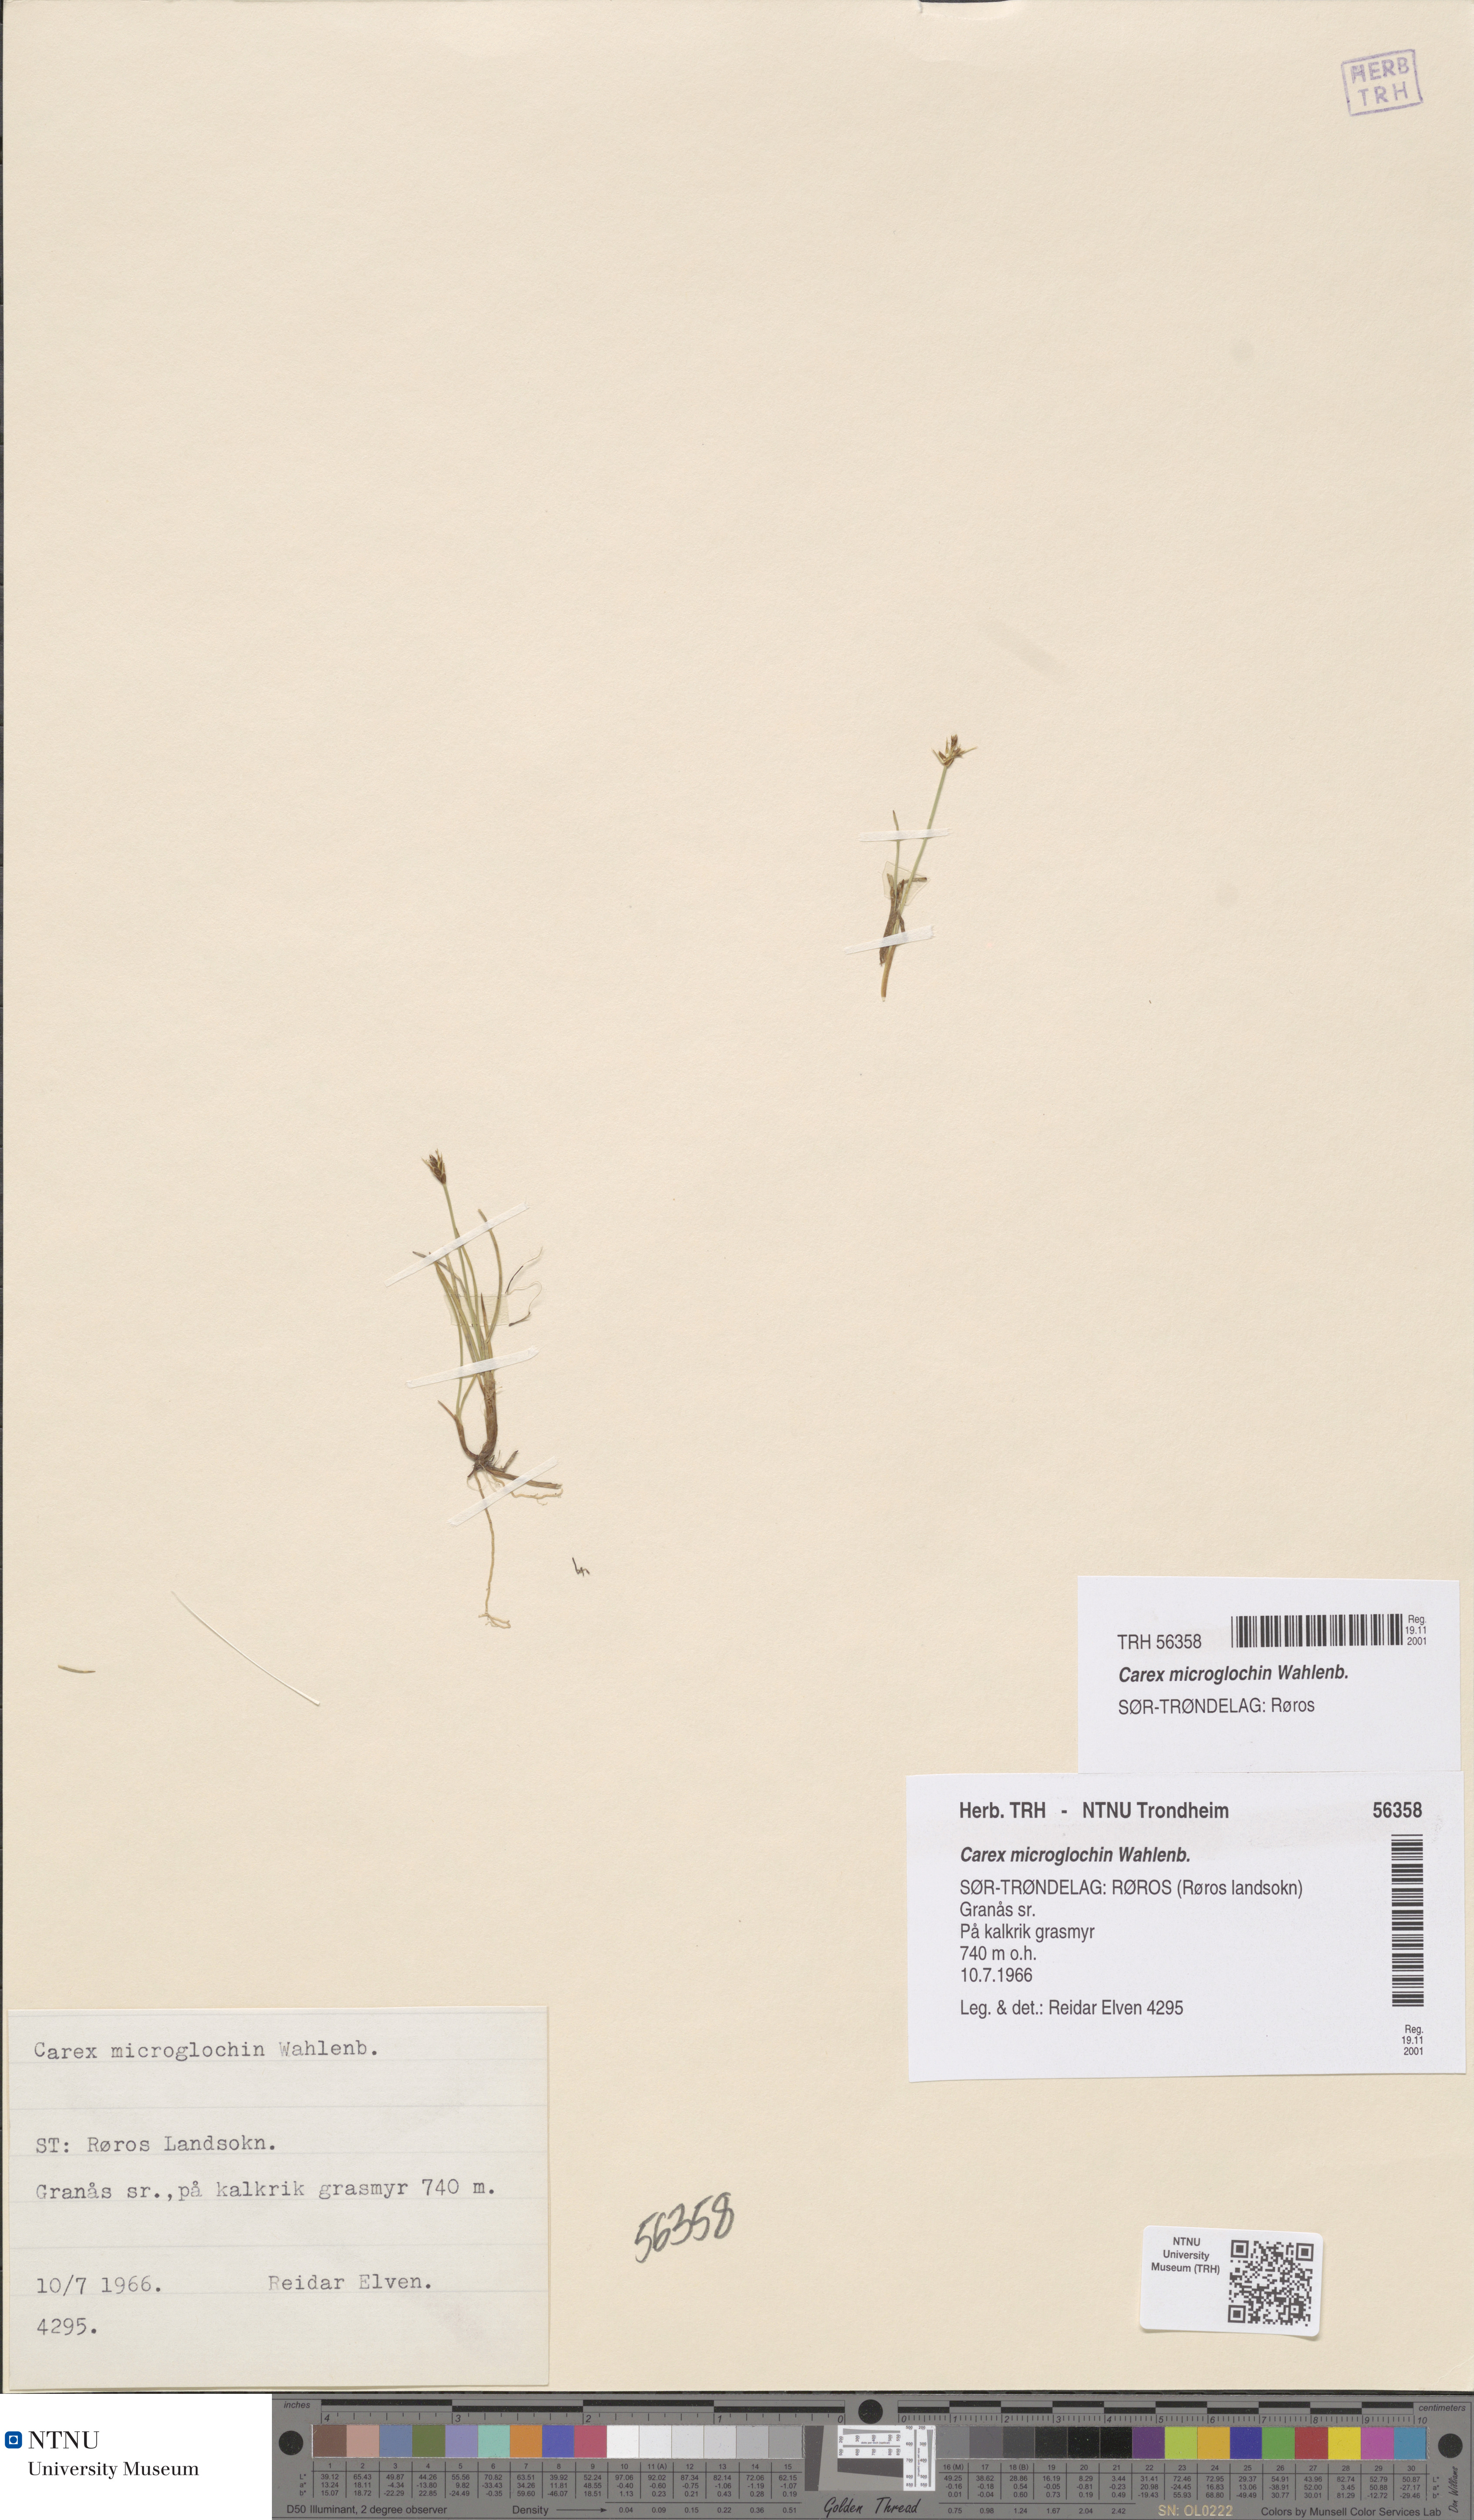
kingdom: Plantae
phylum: Tracheophyta
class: Liliopsida
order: Poales
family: Cyperaceae
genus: Carex
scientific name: Carex microglochin
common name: Bristle sedge
